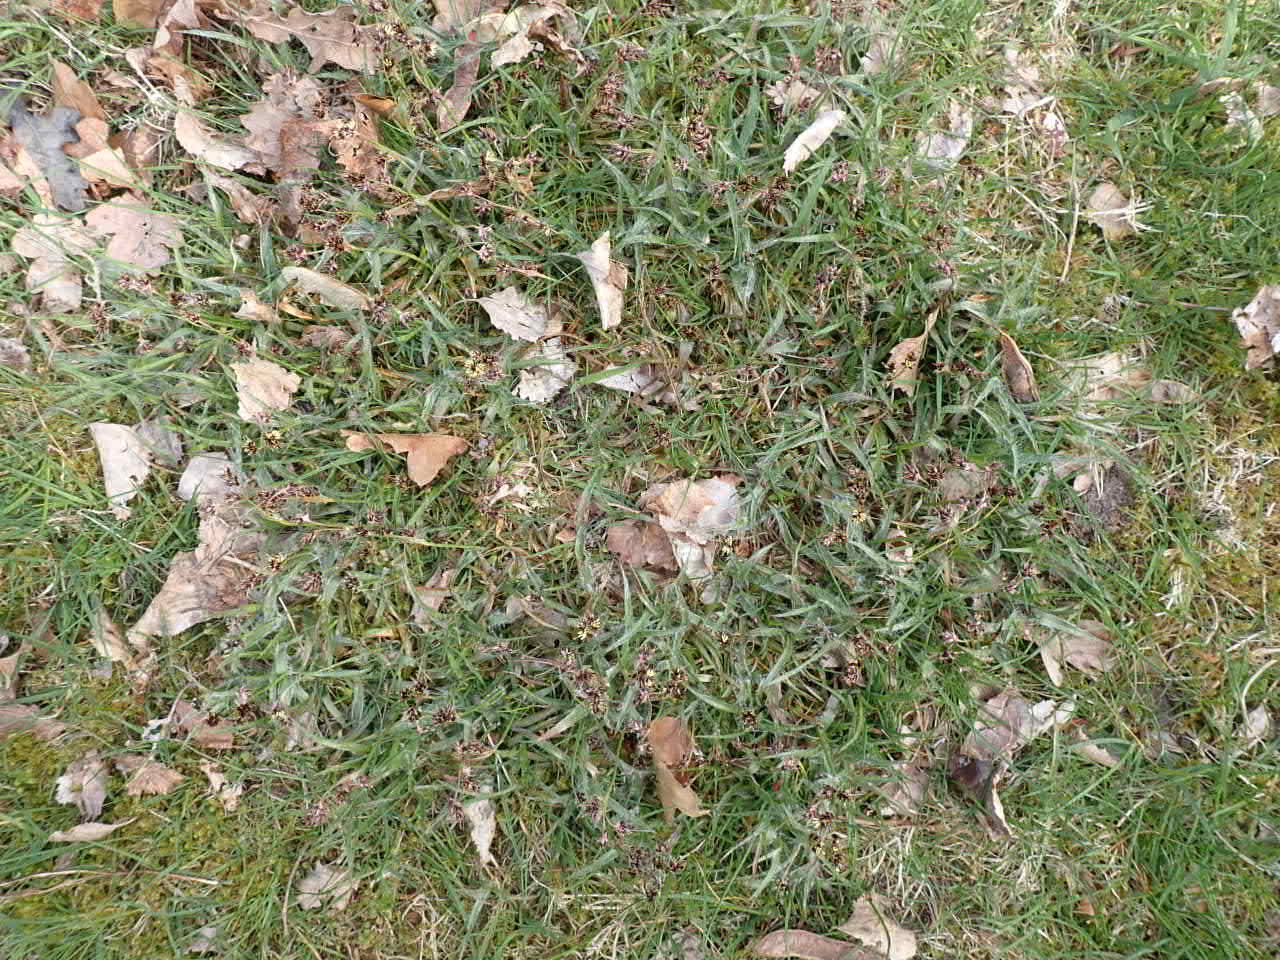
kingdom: Plantae
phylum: Tracheophyta
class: Liliopsida
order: Poales
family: Juncaceae
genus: Luzula
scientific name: Luzula campestris
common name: Mark-frytle
